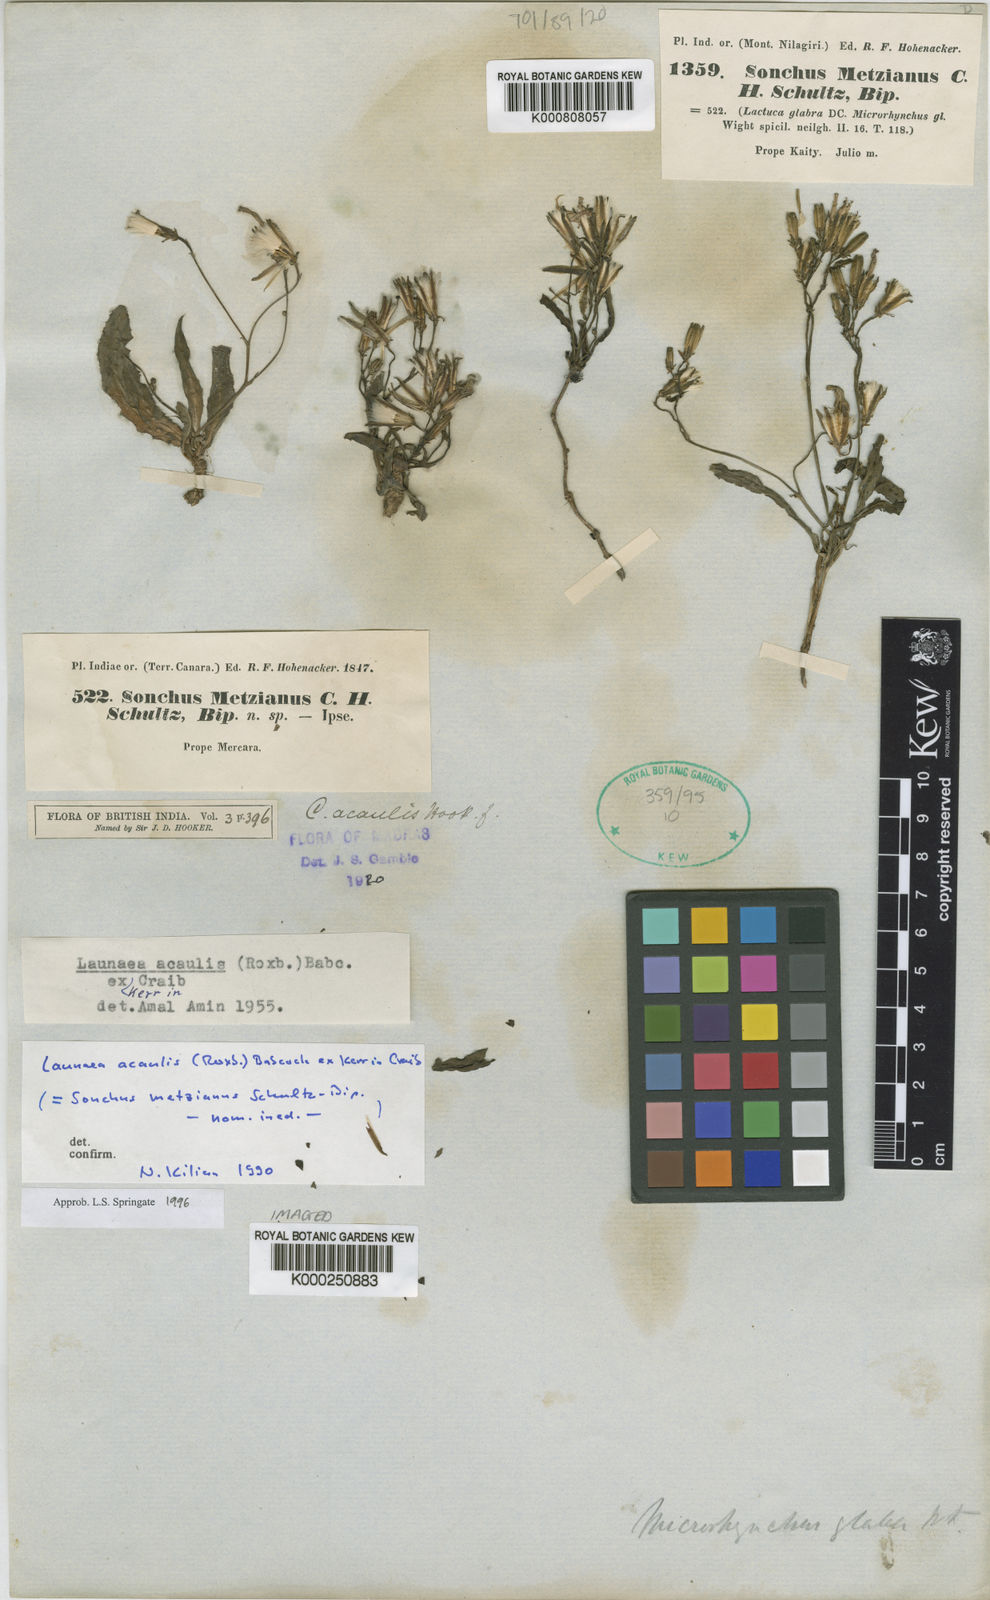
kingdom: Plantae
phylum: Tracheophyta
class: Magnoliopsida
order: Asterales
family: Asteraceae
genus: Launaea
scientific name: Launaea acaulis
